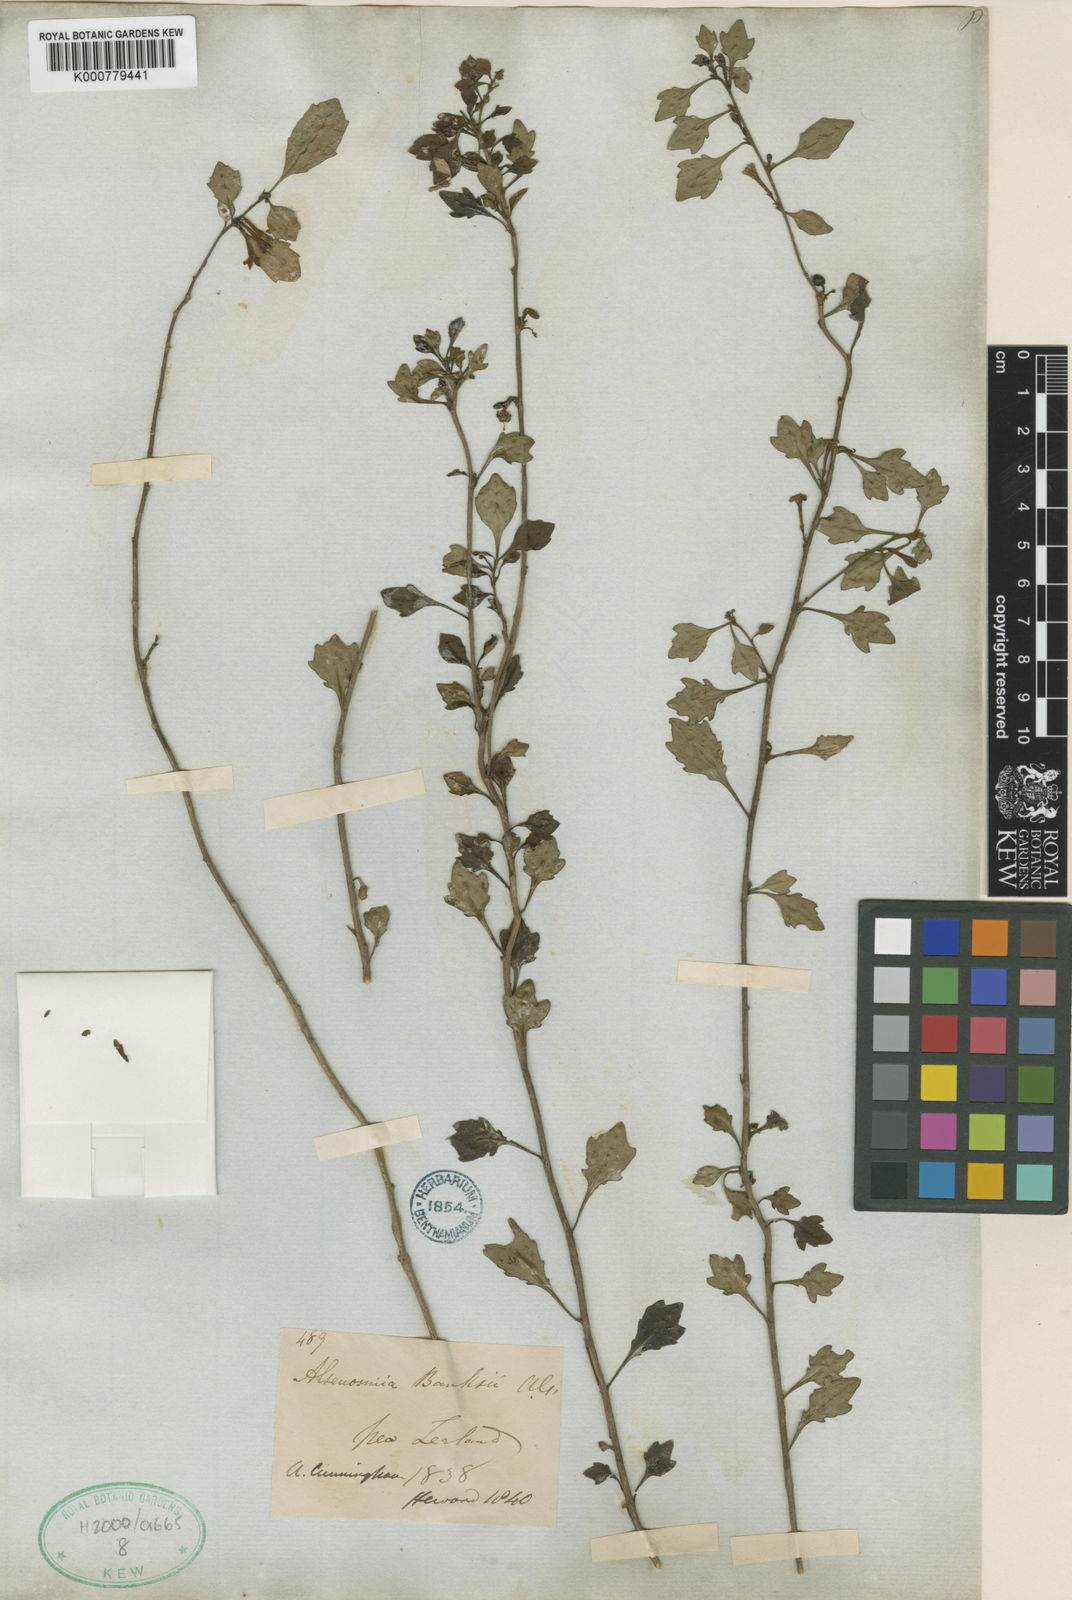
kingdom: Plantae
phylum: Tracheophyta
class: Magnoliopsida
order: Asterales
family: Alseuosmiaceae
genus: Alseuosmia
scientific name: Alseuosmia banksii
